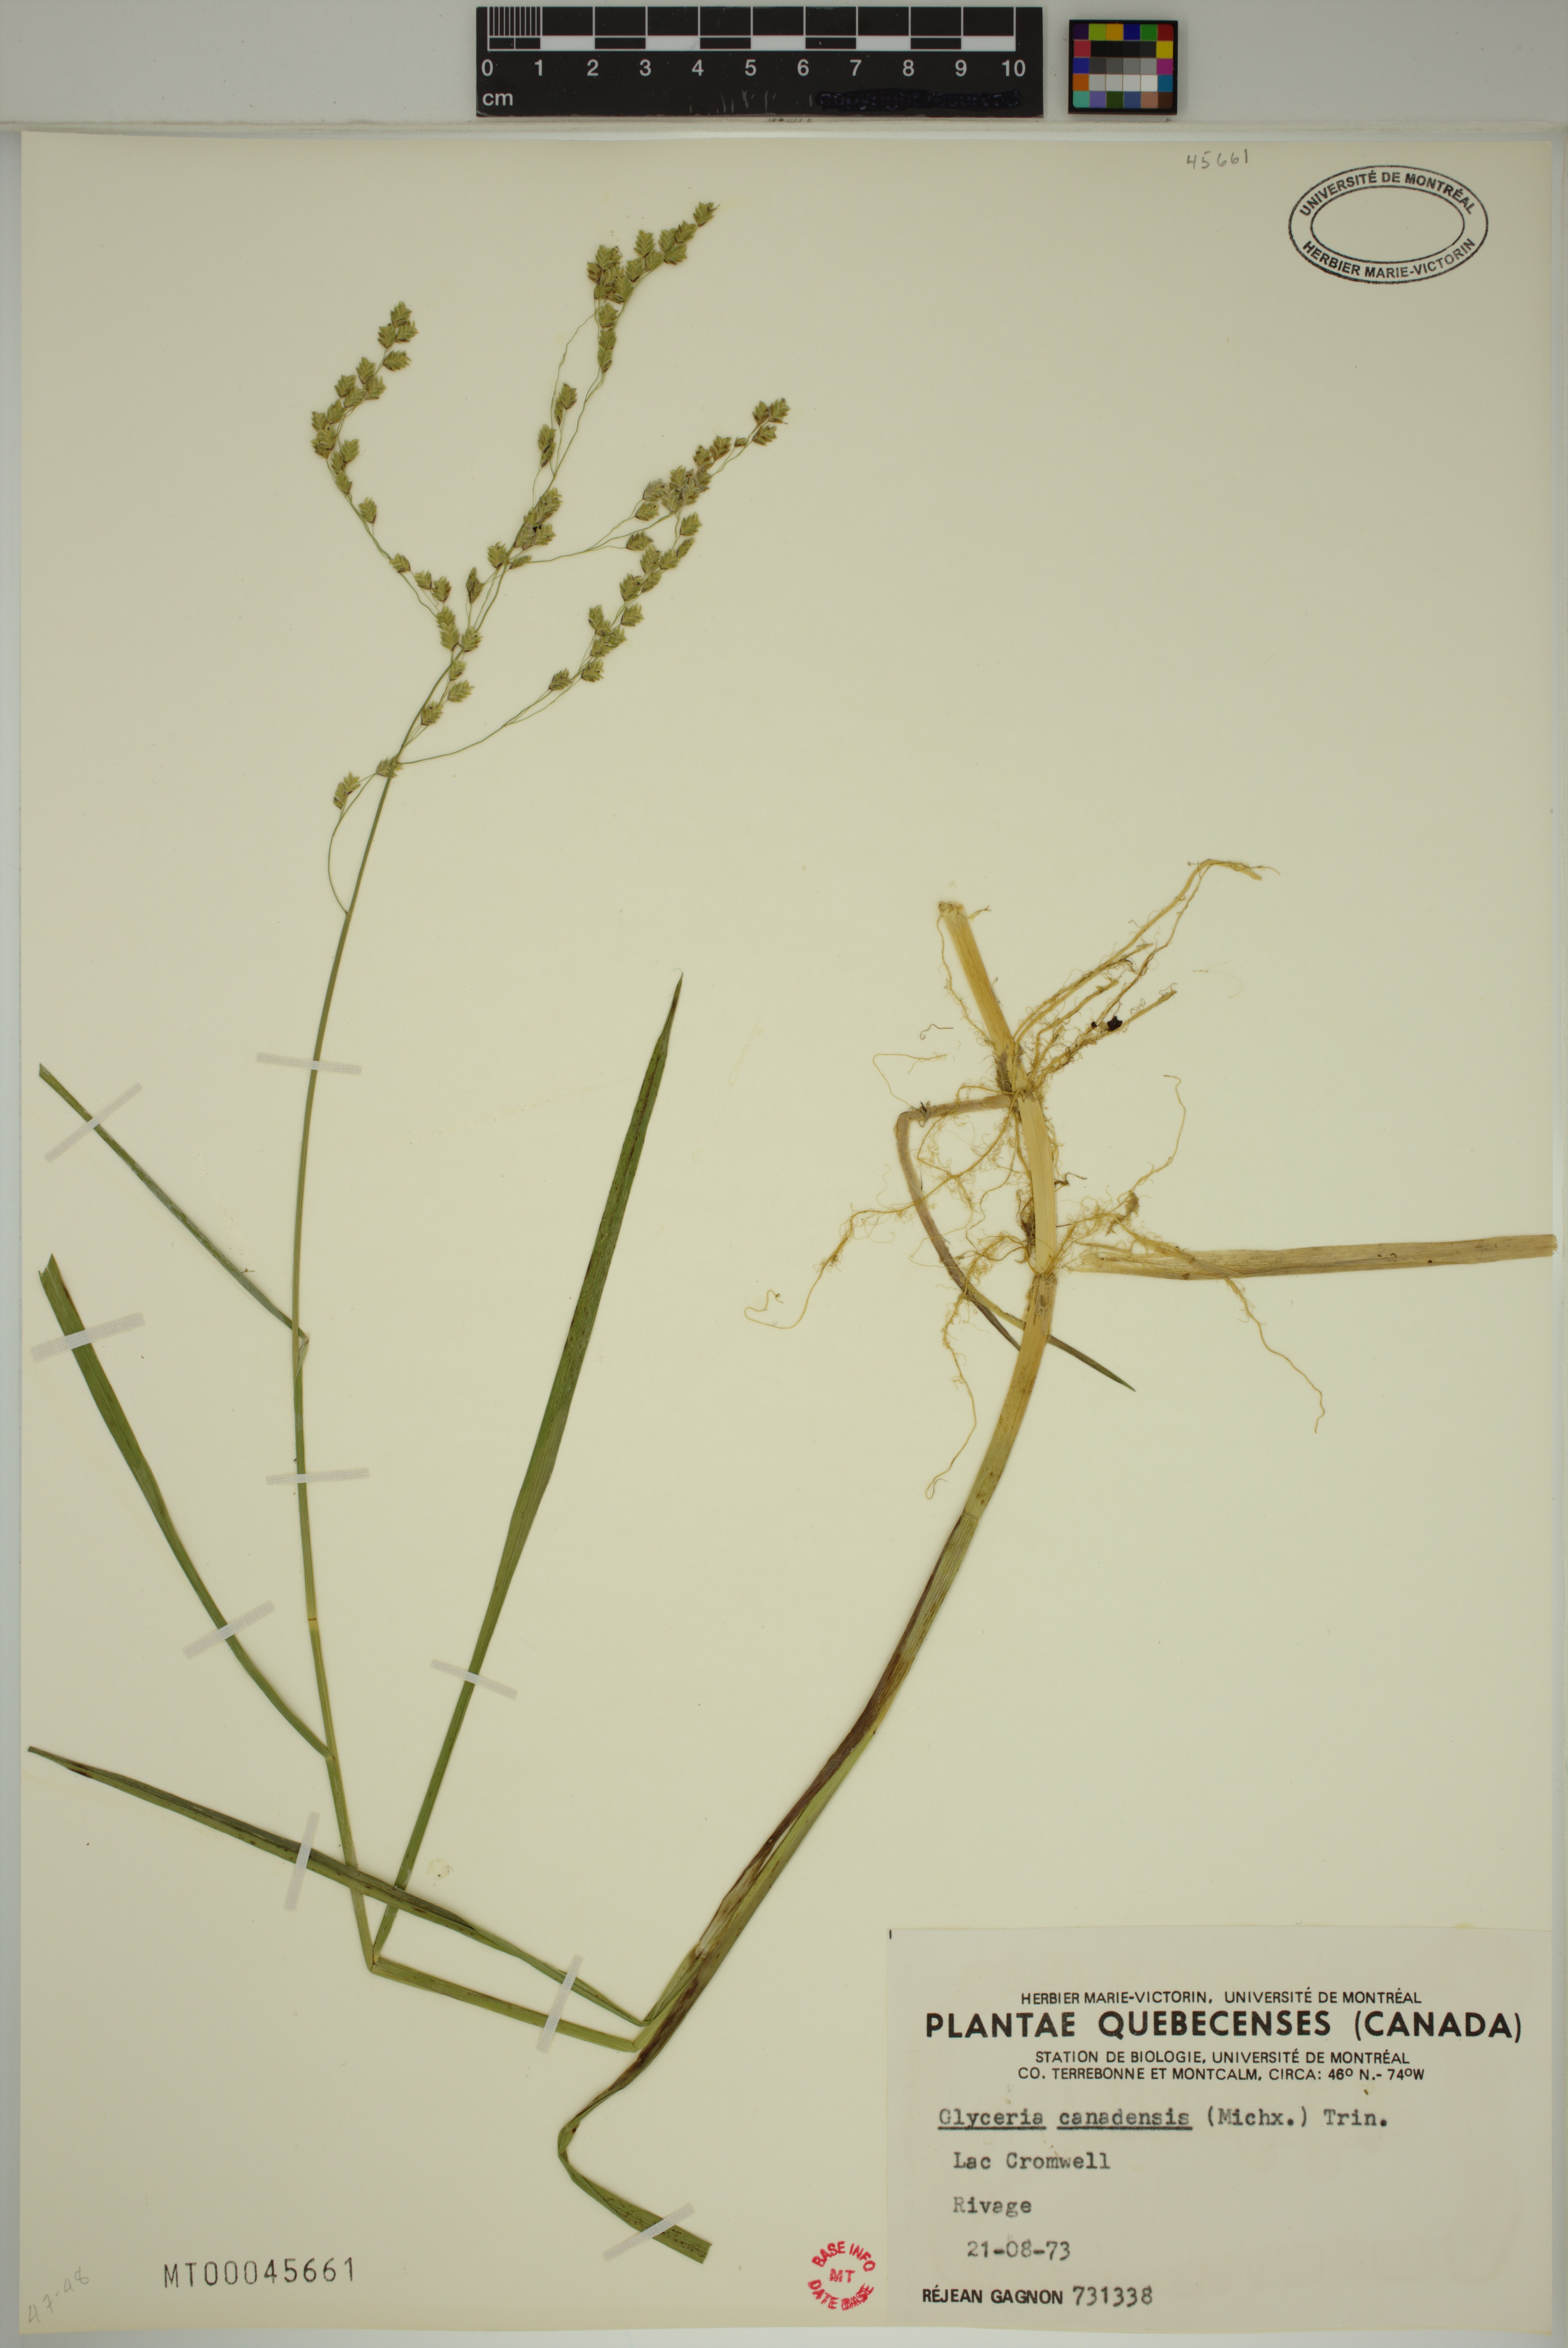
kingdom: Plantae
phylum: Tracheophyta
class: Liliopsida
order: Poales
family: Poaceae
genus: Glyceria
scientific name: Glyceria canadensis
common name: Canada mannagrass
